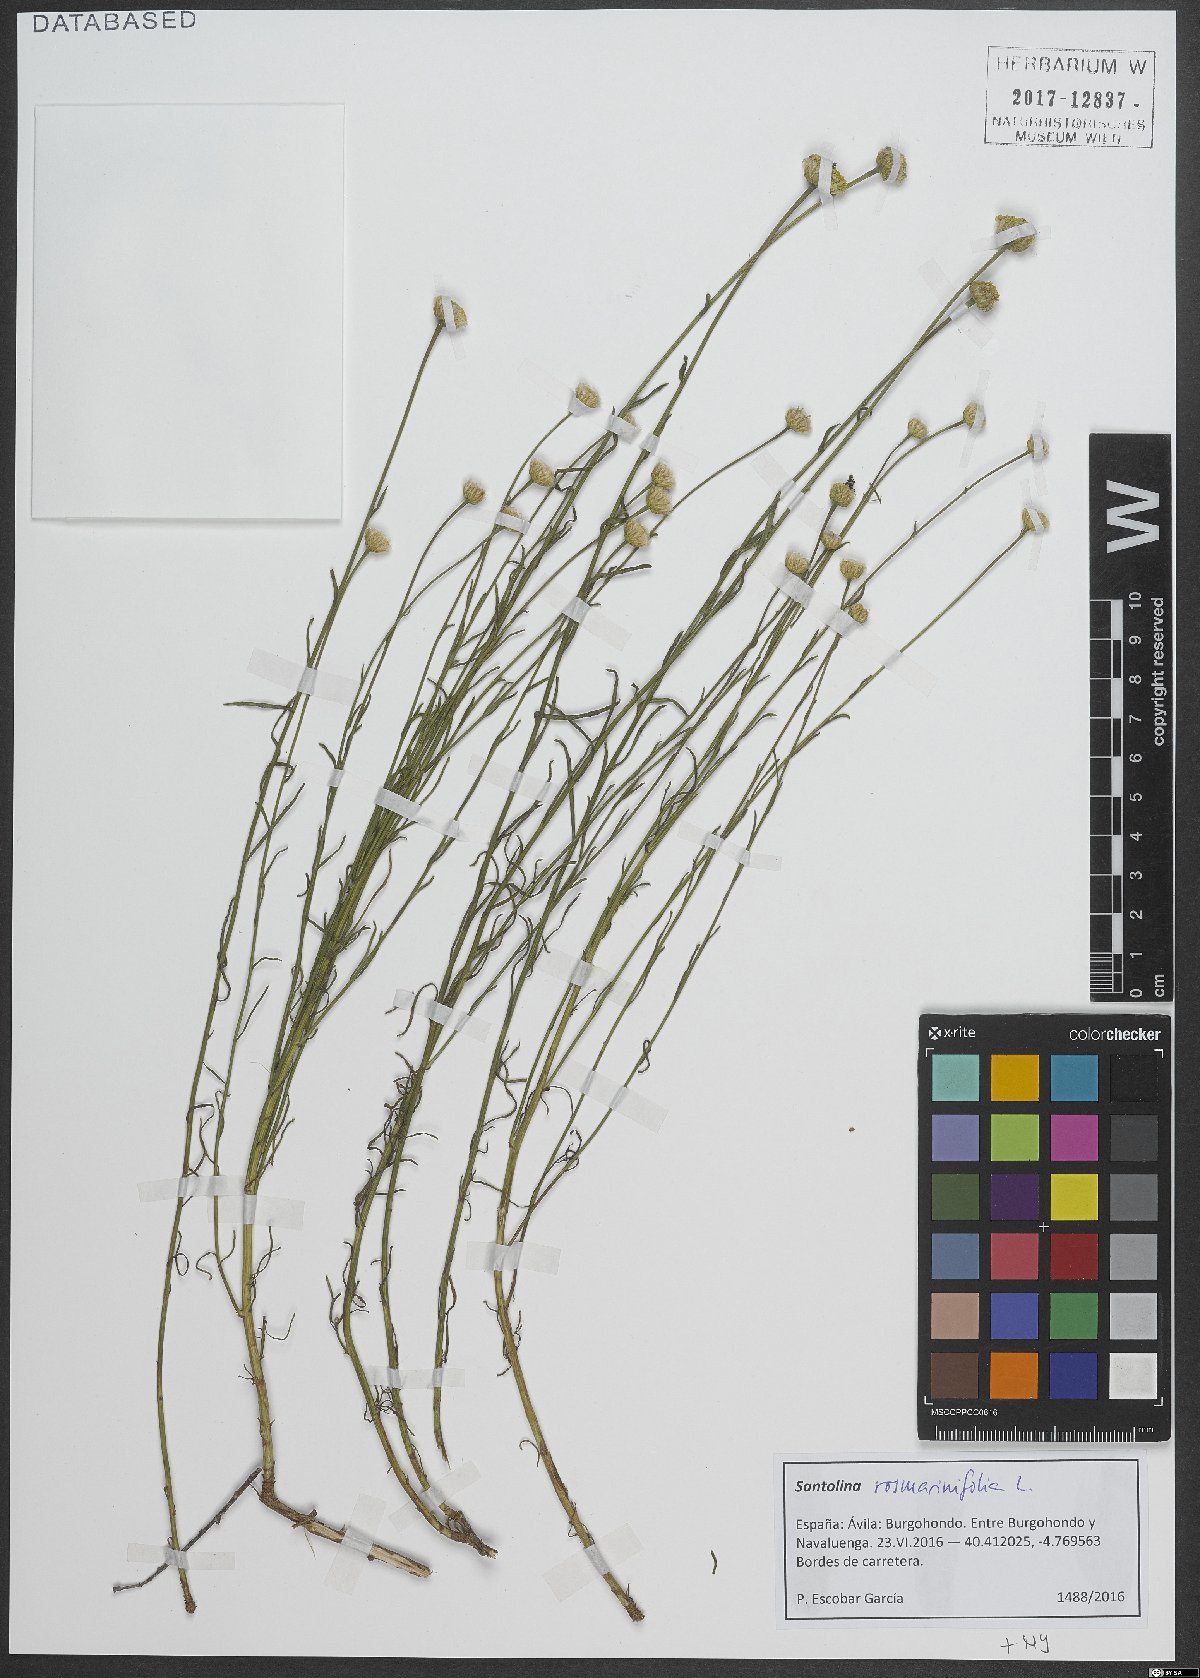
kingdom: Plantae
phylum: Tracheophyta
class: Magnoliopsida
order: Asterales
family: Asteraceae
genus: Santolina
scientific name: Santolina rosmarinifolia
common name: Holy-flax
